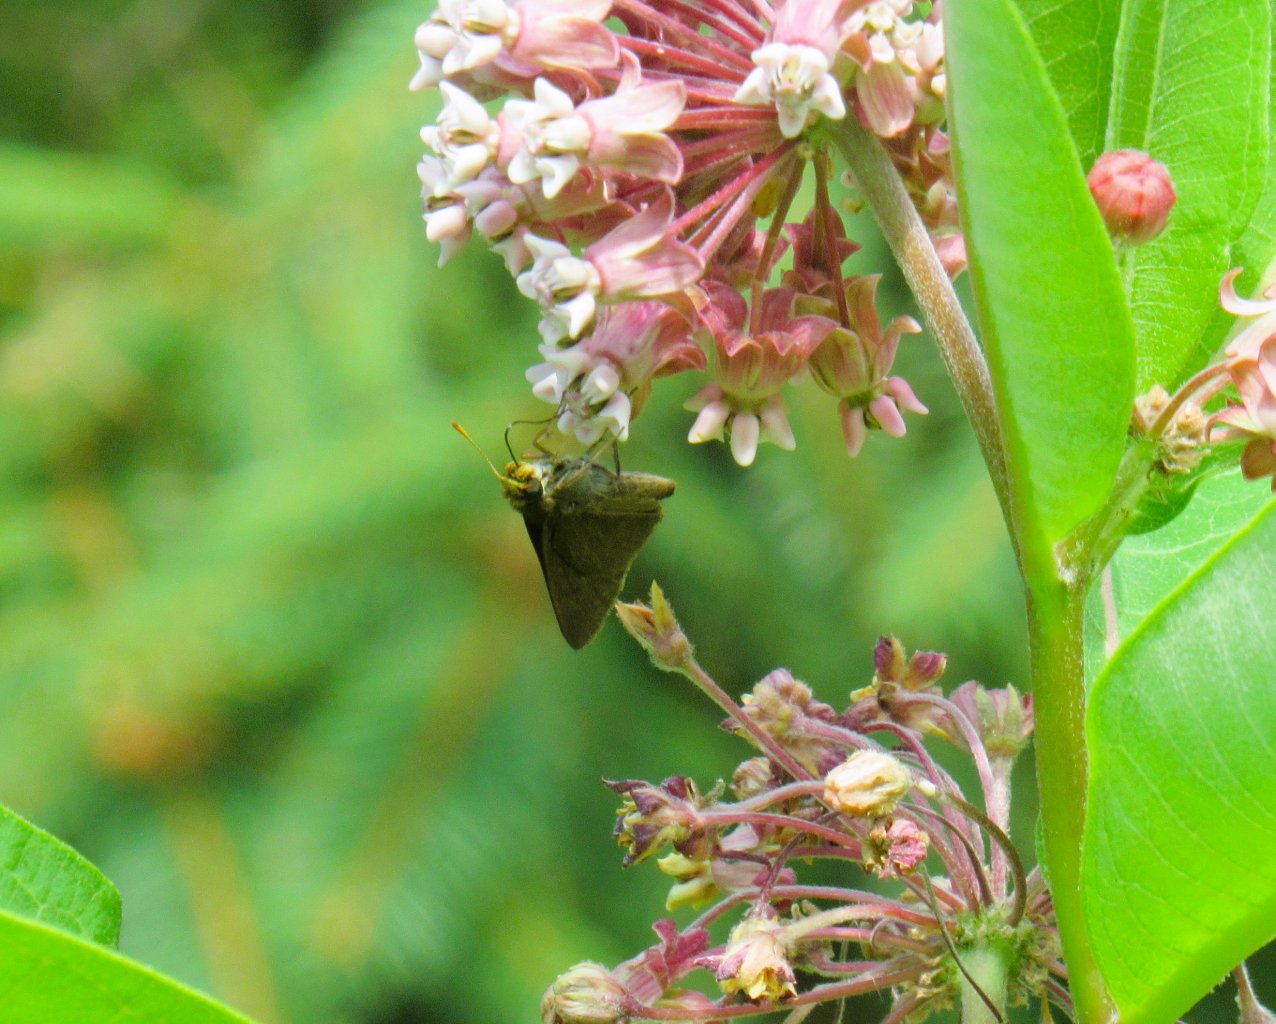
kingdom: Animalia
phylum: Arthropoda
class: Insecta
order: Lepidoptera
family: Hesperiidae
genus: Euphyes
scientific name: Euphyes vestris
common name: Dun Skipper
